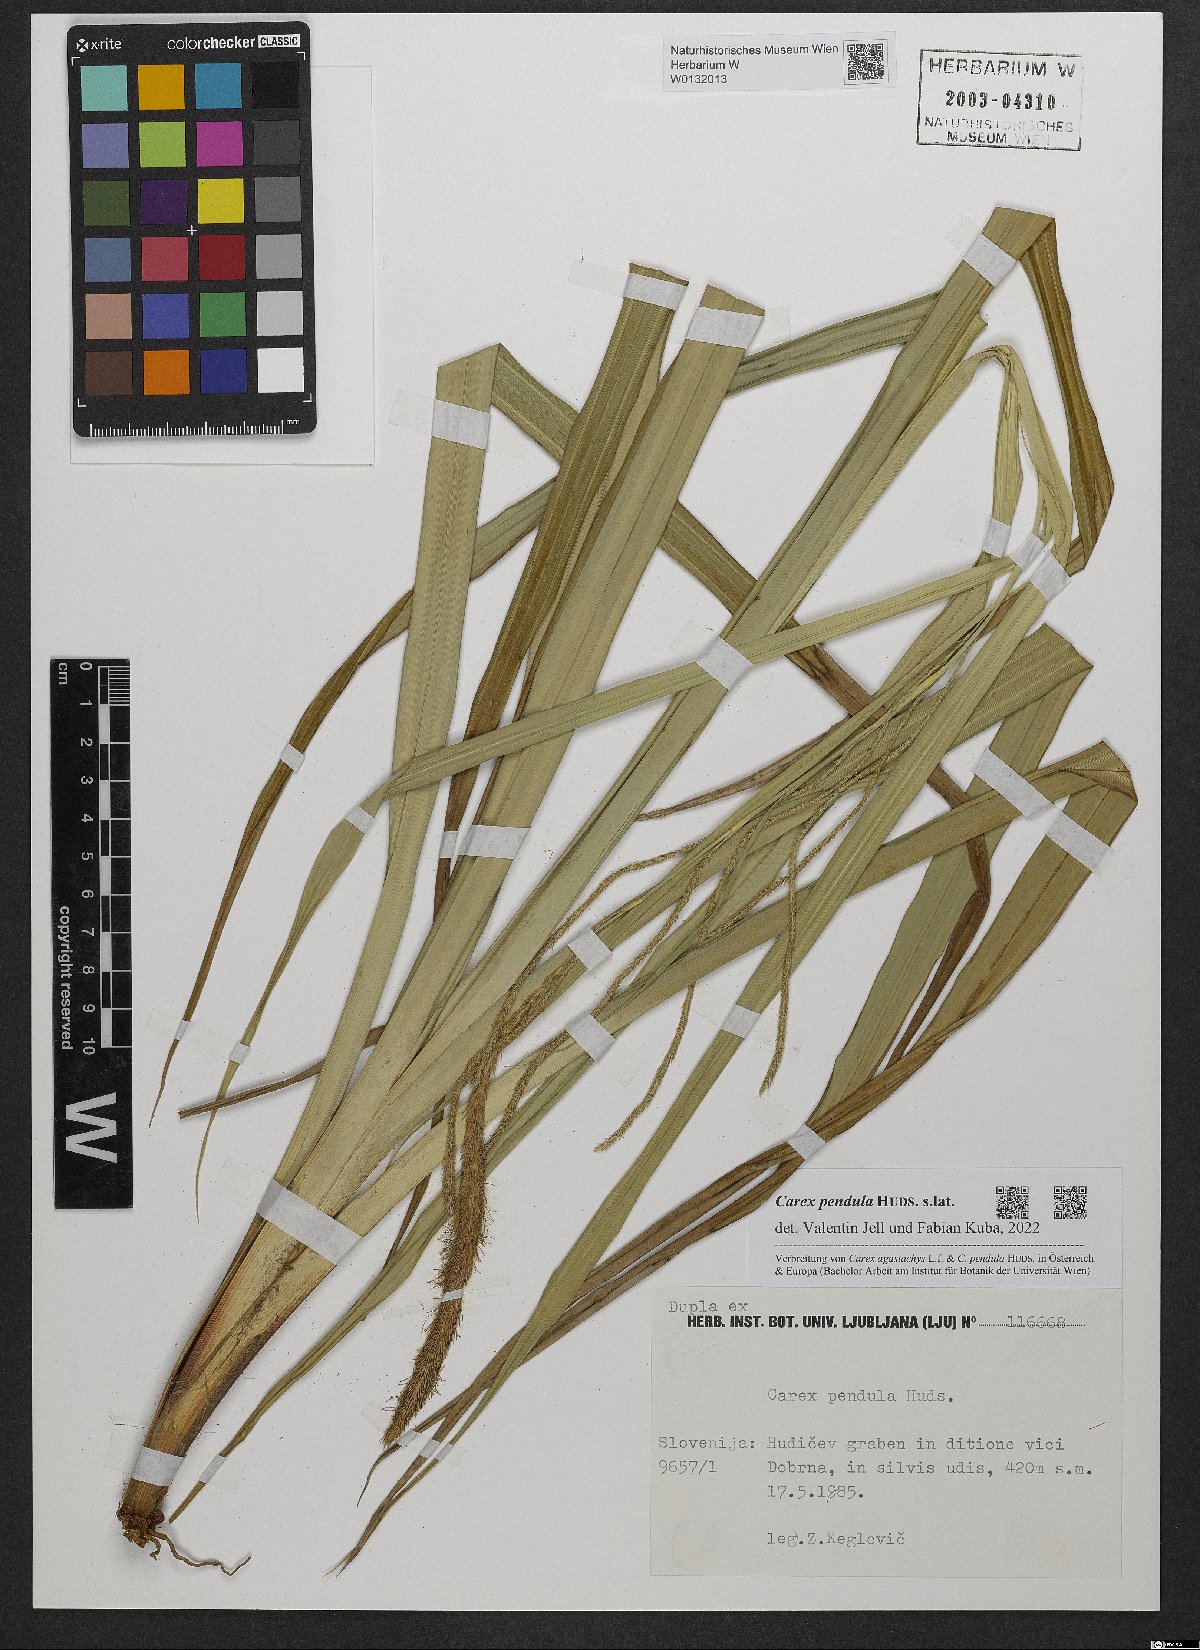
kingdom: Plantae
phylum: Tracheophyta
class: Liliopsida
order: Poales
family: Cyperaceae
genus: Carex
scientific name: Carex pendula
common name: Pendulous sedge
